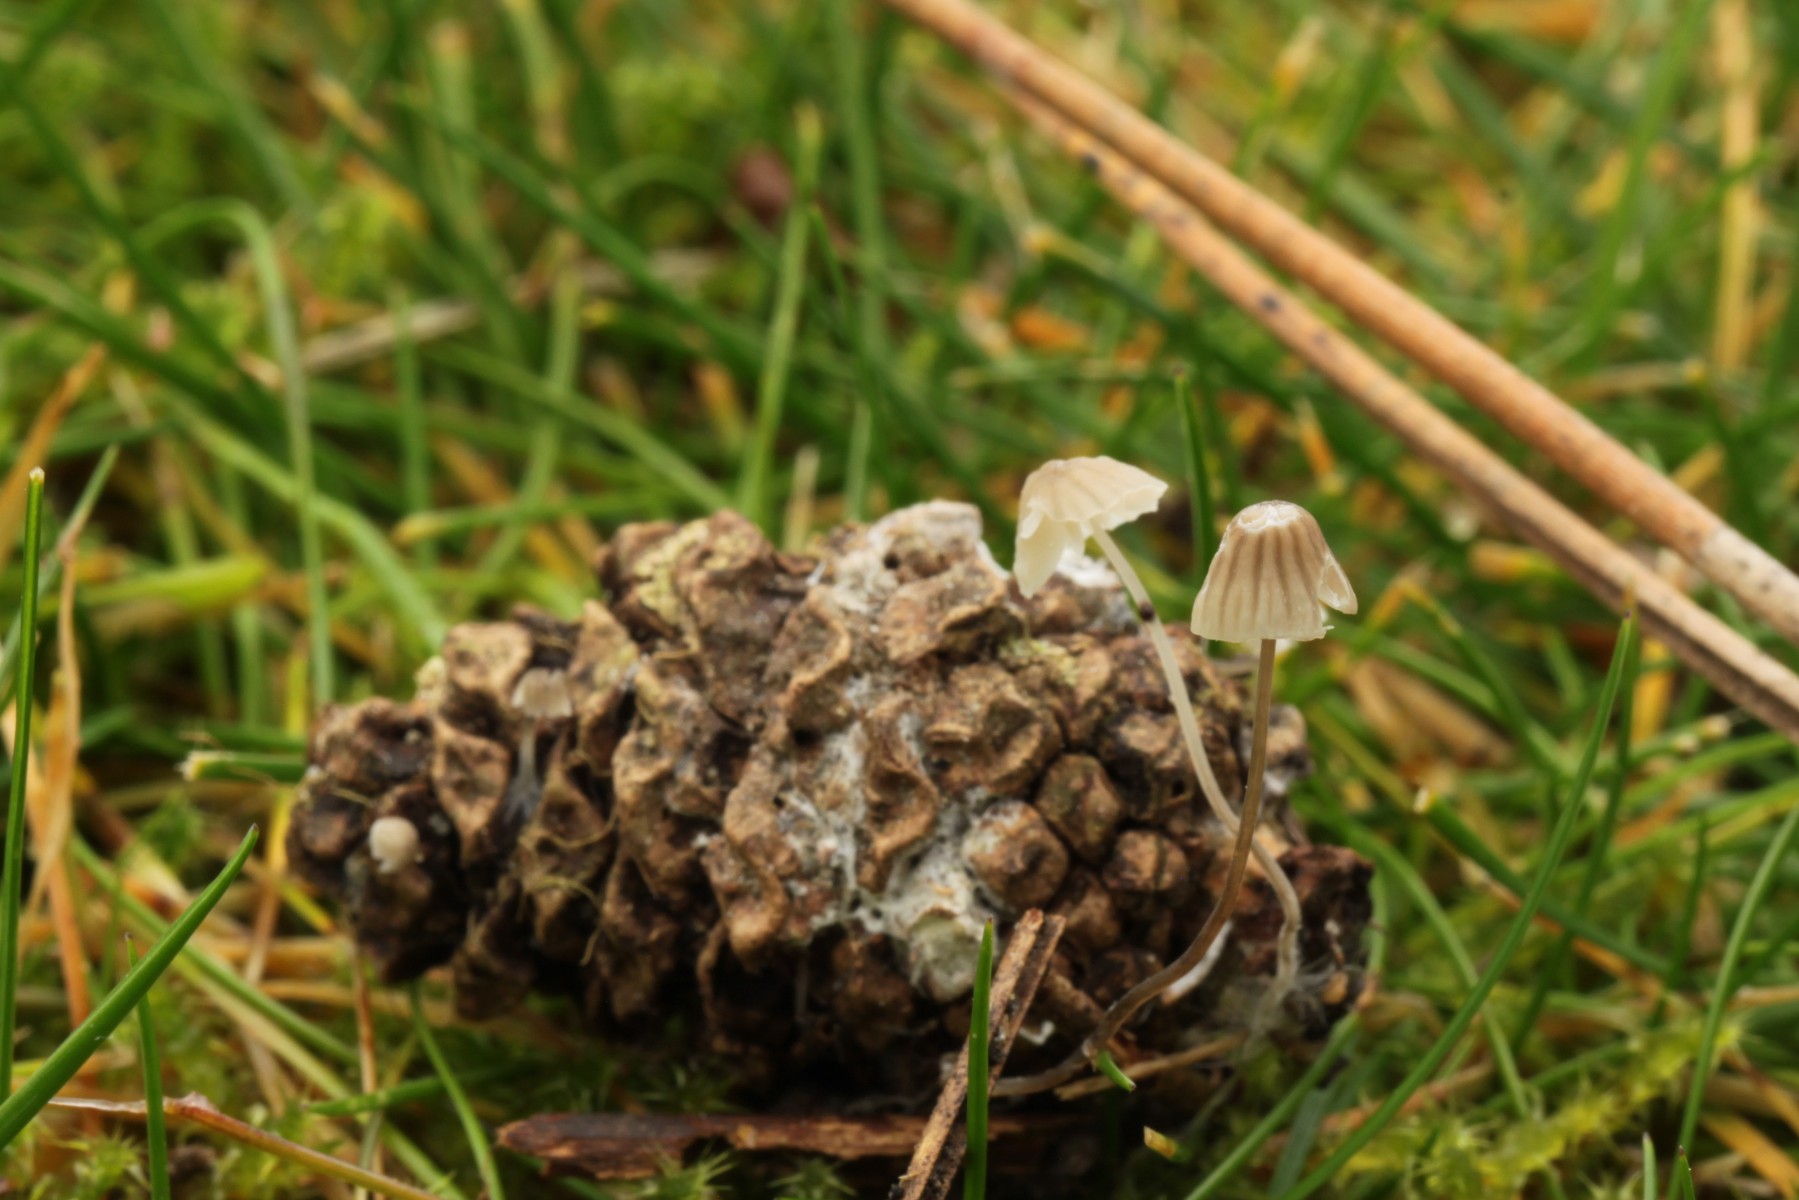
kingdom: Fungi
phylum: Basidiomycota
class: Agaricomycetes
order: Agaricales
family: Mycenaceae
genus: Mycena
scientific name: Mycena mirata
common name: krat-huesvamp
